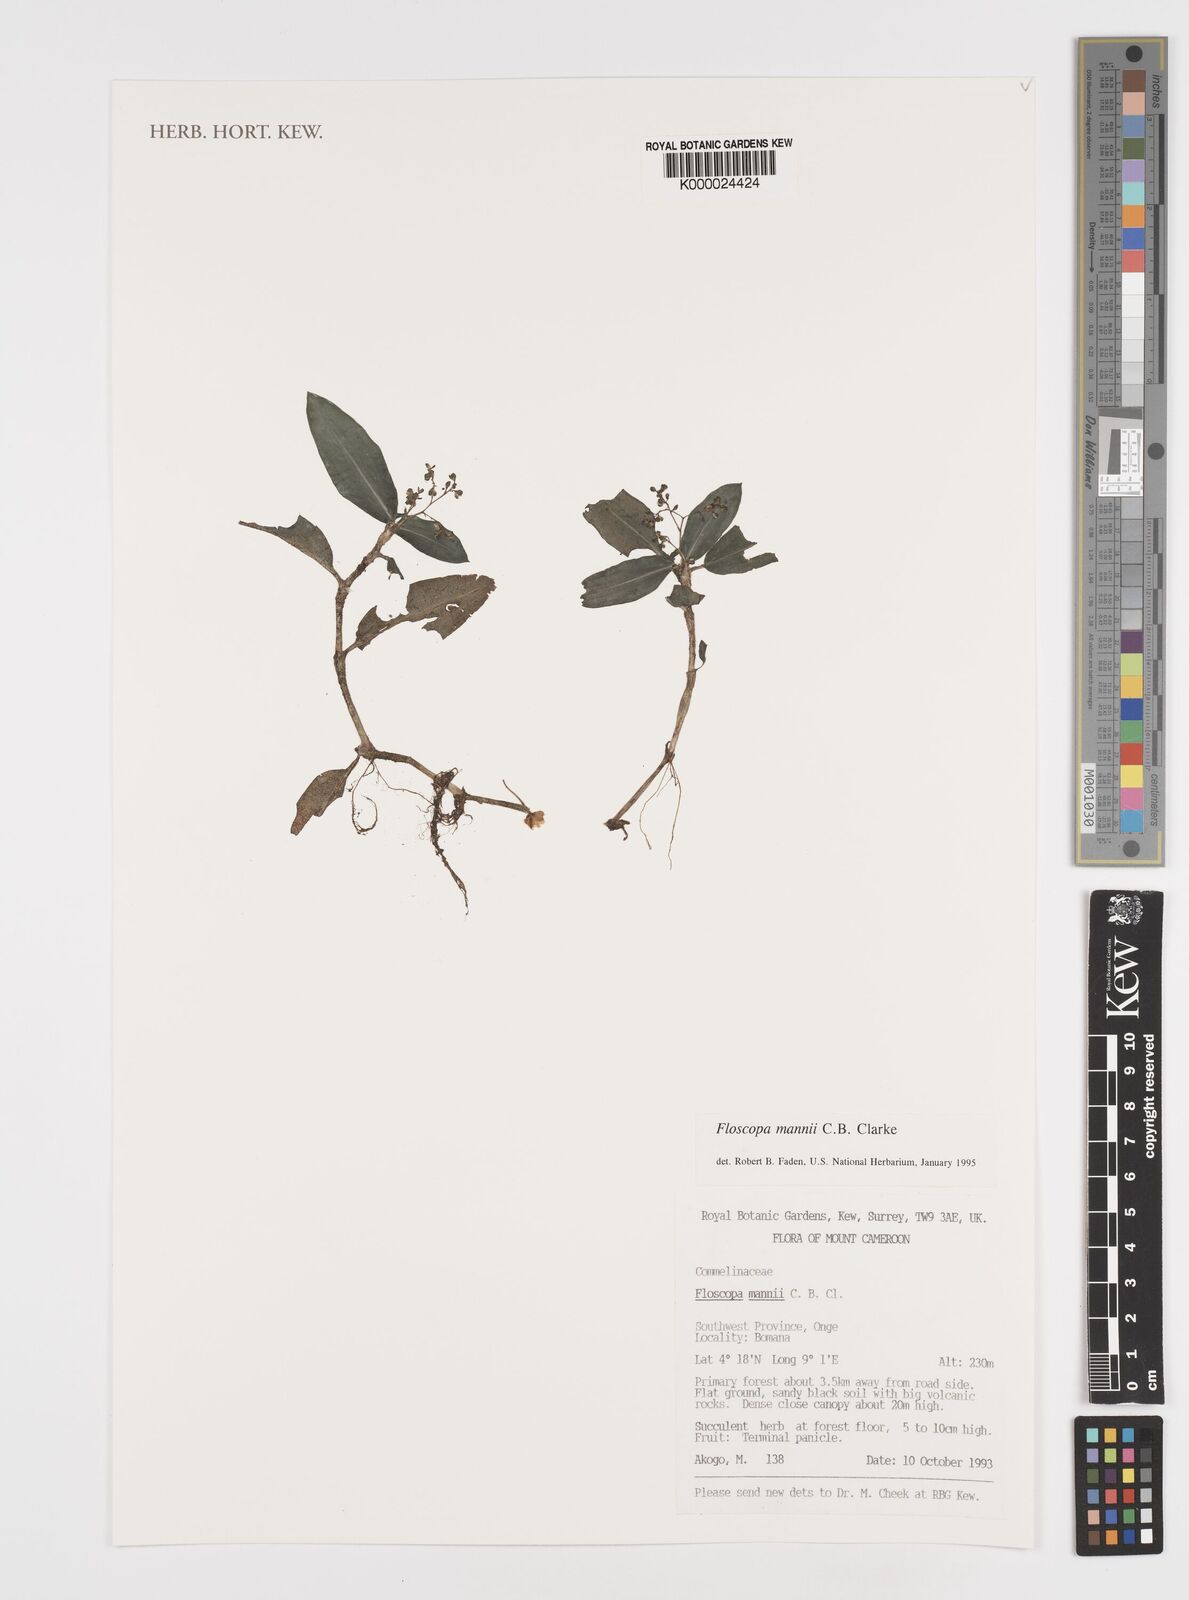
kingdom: Plantae
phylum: Tracheophyta
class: Liliopsida
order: Commelinales
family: Commelinaceae
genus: Floscopa
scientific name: Floscopa mannii
